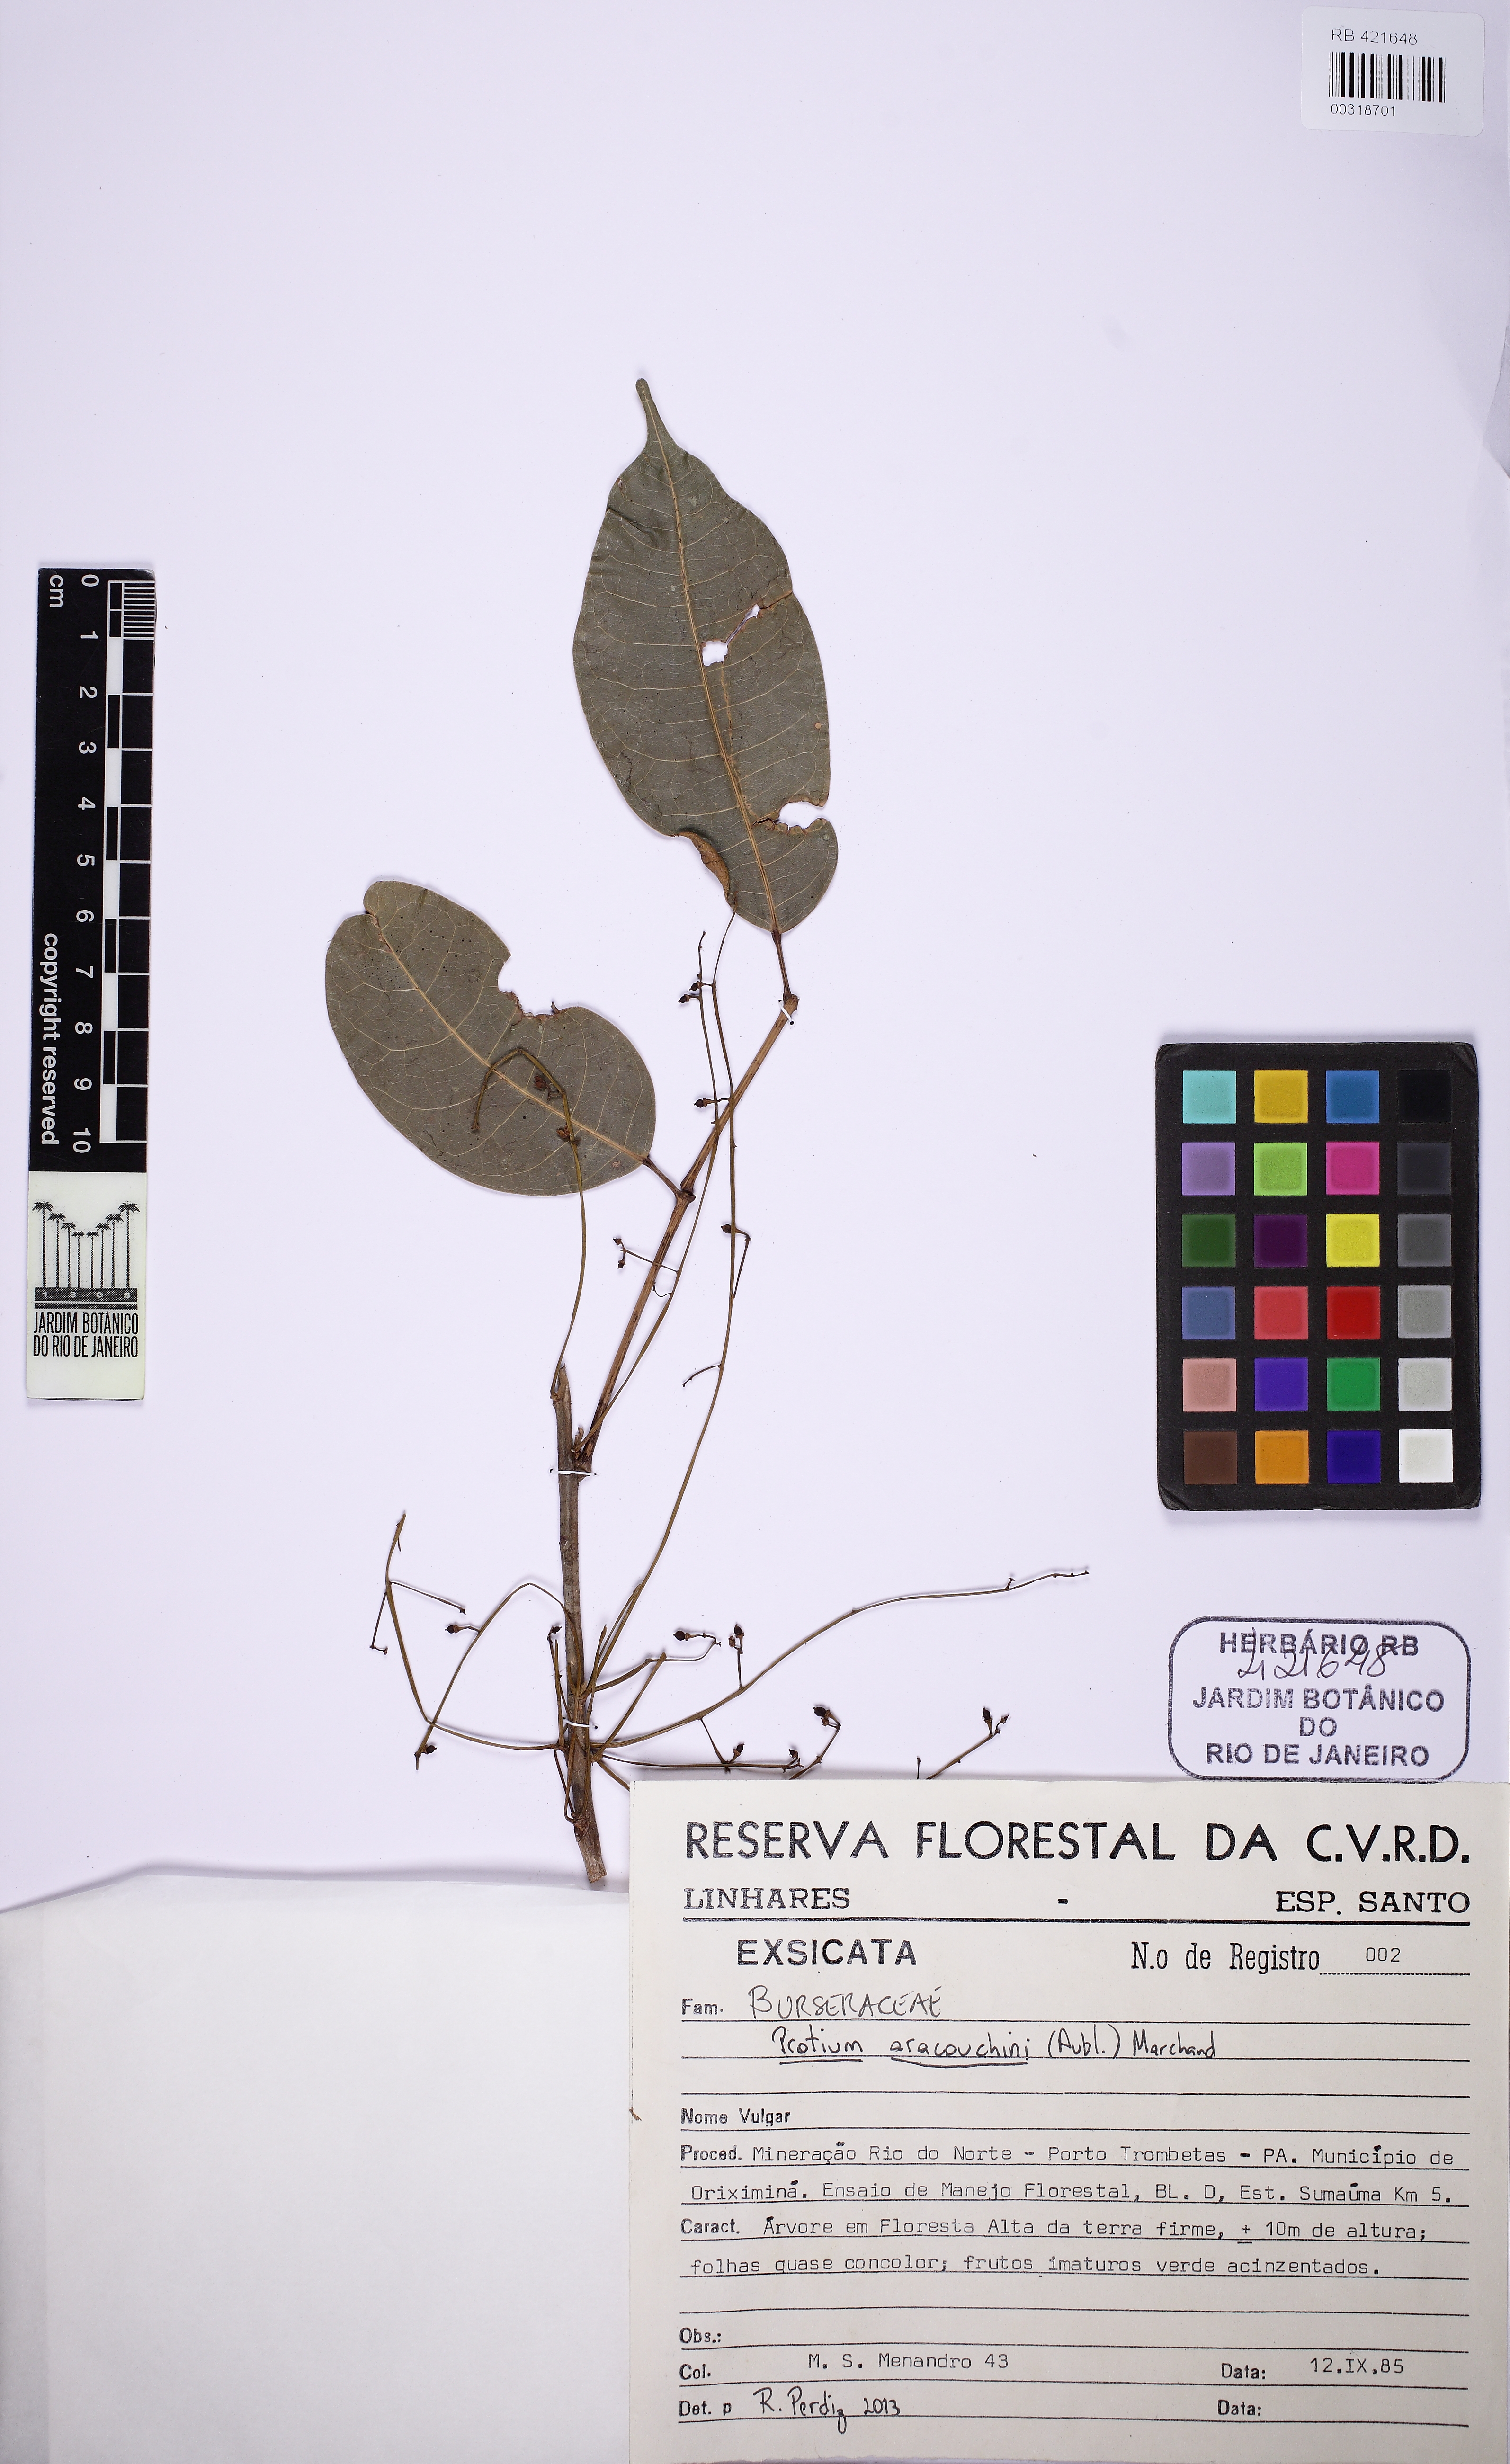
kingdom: Plantae
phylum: Tracheophyta
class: Magnoliopsida
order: Sapindales
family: Burseraceae
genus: Protium
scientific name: Protium aracouchini
